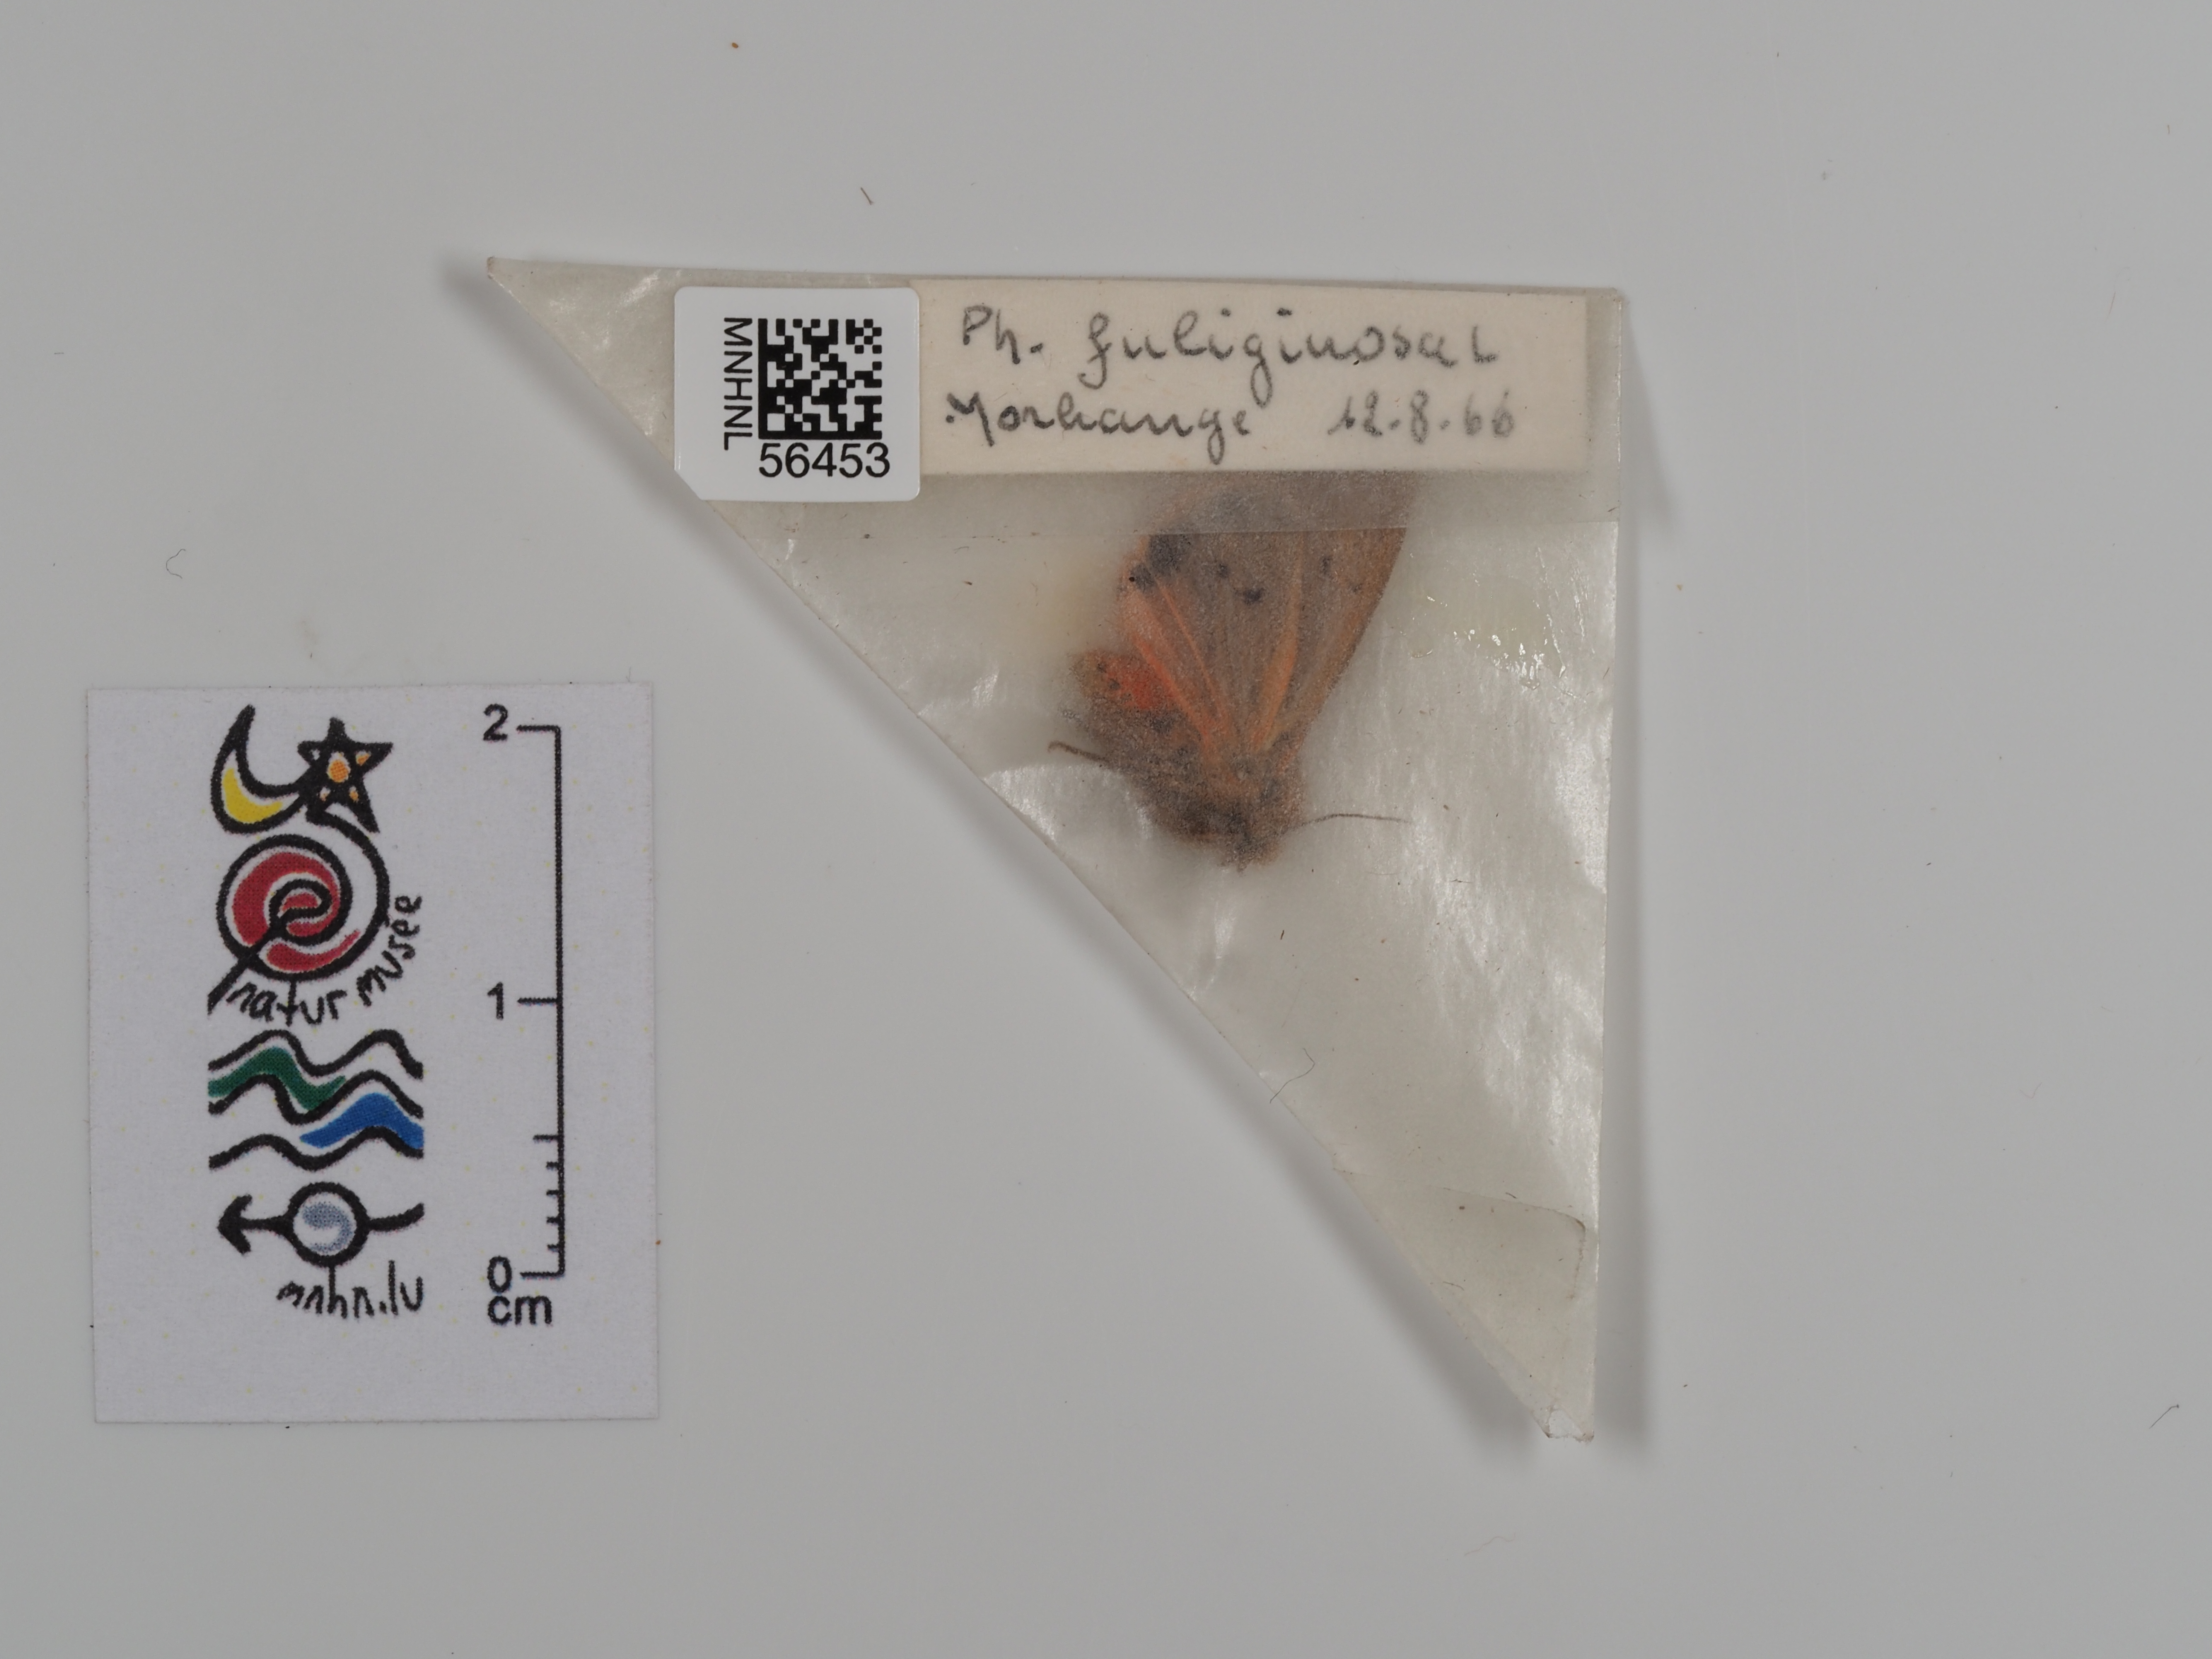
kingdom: Animalia
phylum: Arthropoda
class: Insecta
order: Lepidoptera
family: Erebidae
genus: Phragmatobia
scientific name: Phragmatobia fuliginosa
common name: Ruby tiger
